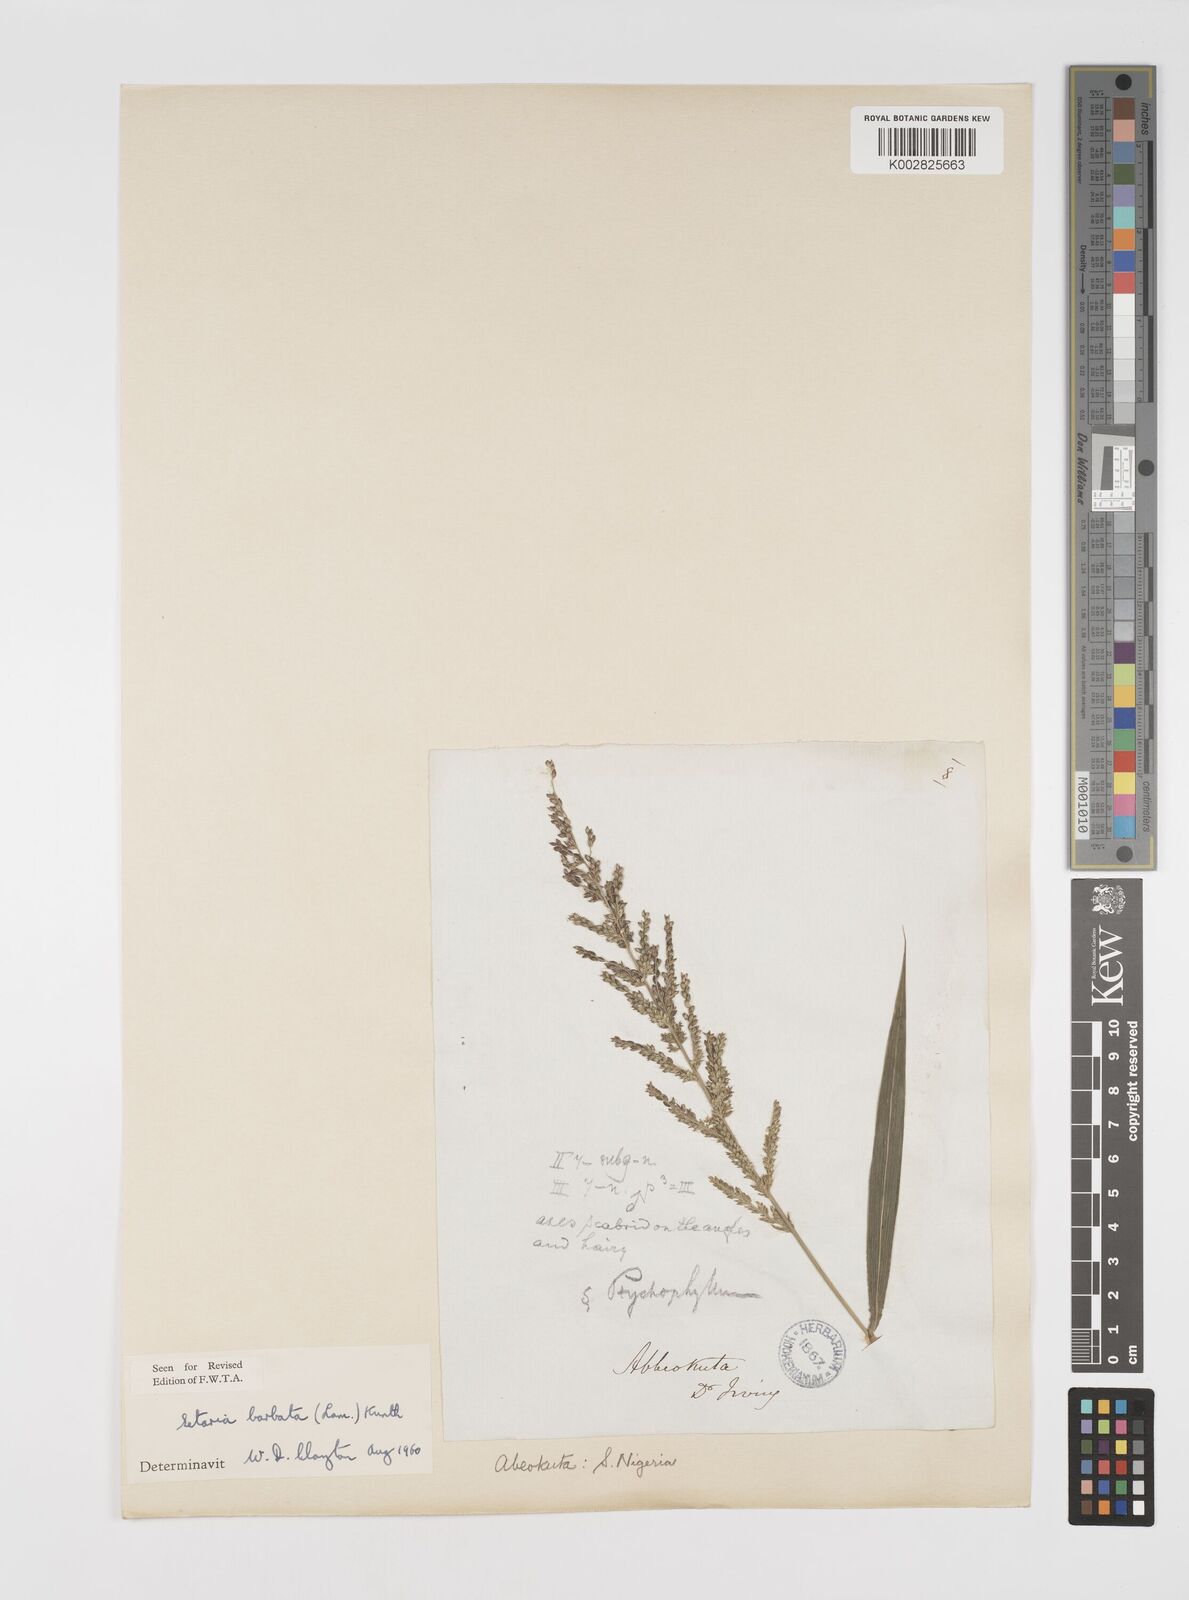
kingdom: Plantae
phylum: Tracheophyta
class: Liliopsida
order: Poales
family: Poaceae
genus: Setaria
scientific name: Setaria barbata
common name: East indian bristlegrass
